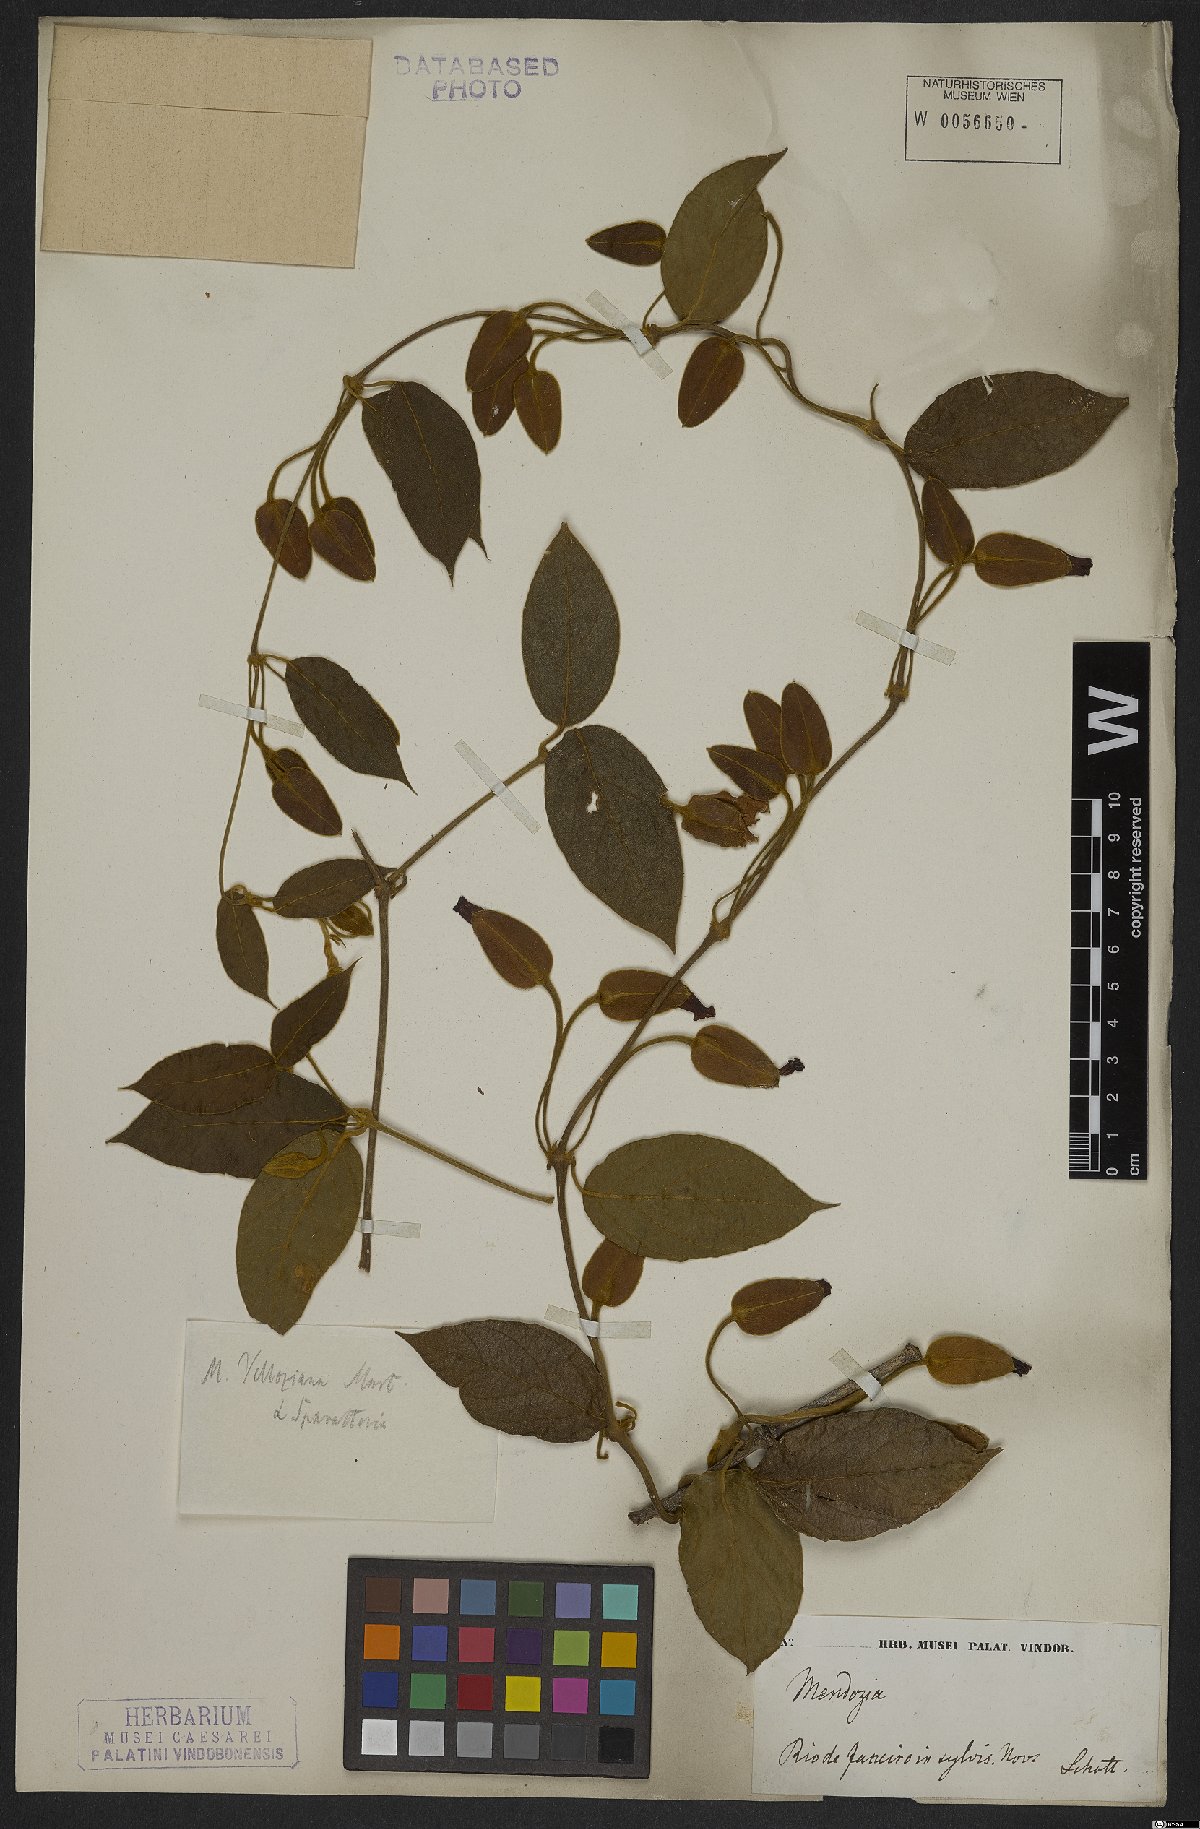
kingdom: Plantae
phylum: Tracheophyta
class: Magnoliopsida
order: Lamiales
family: Acanthaceae
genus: Mendoncia
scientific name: Mendoncia coccinea
